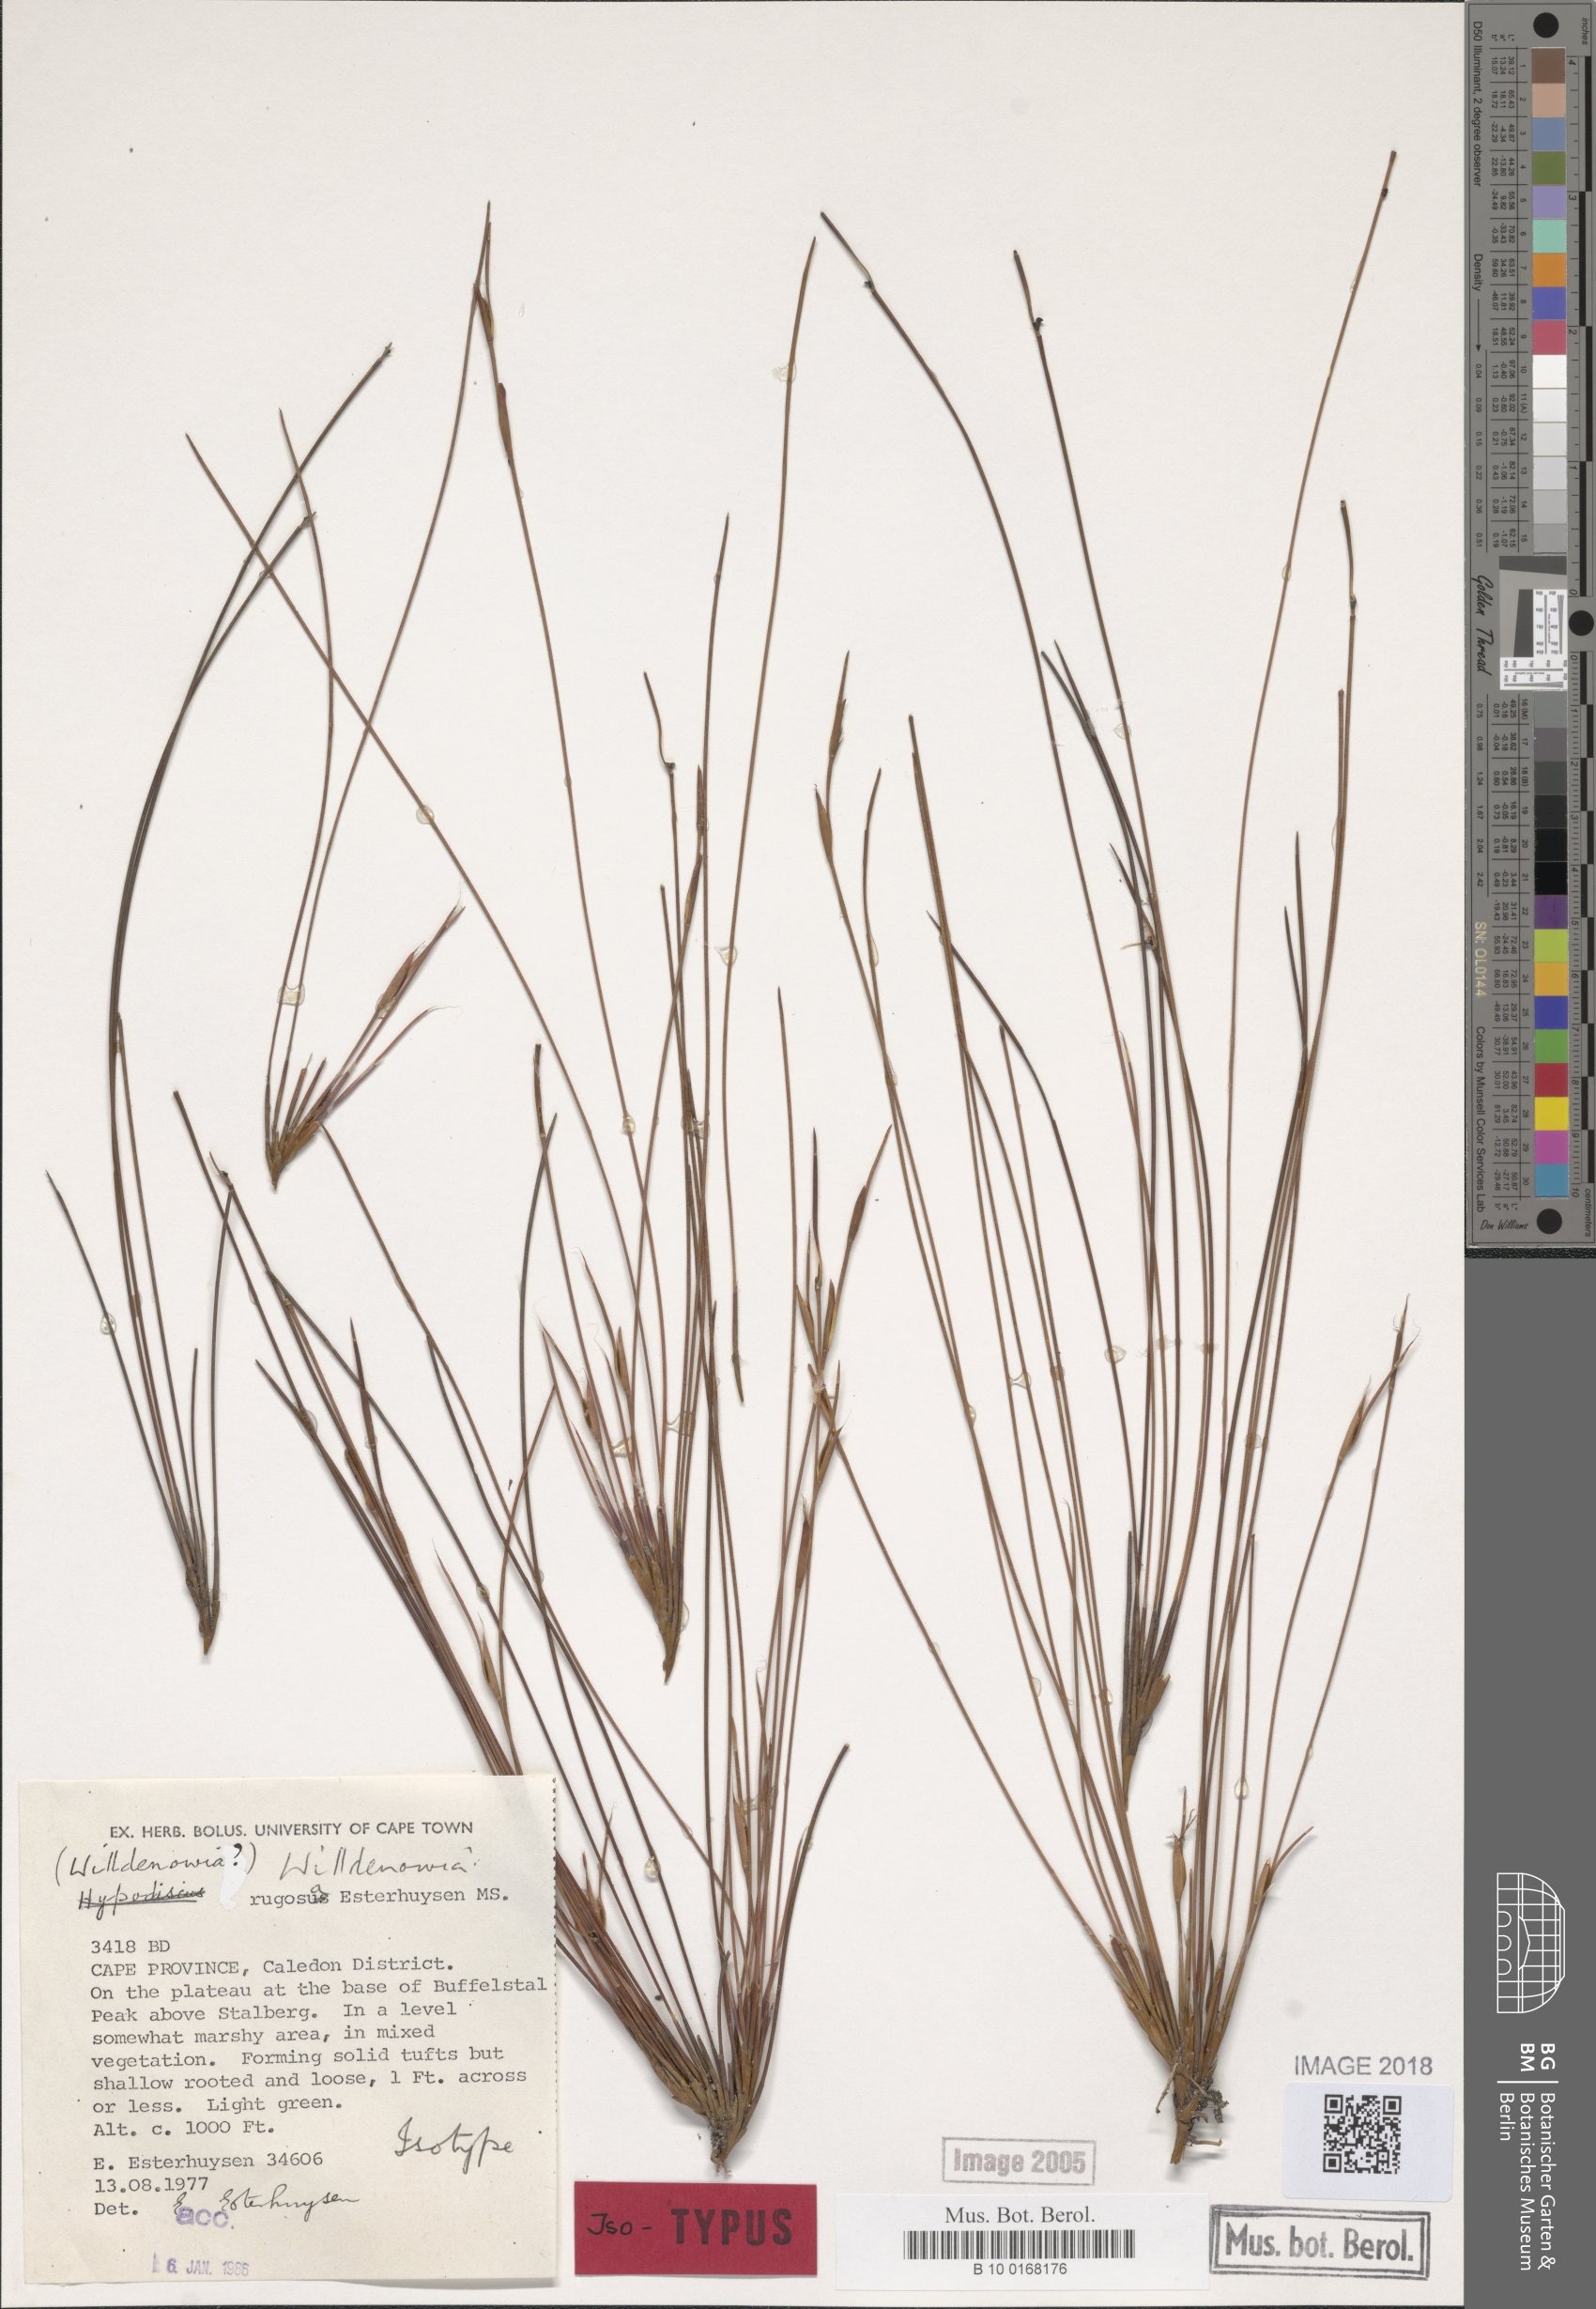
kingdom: Plantae
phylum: Tracheophyta
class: Liliopsida
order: Poales
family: Restionaceae
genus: Willdenowia
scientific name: Willdenowia rugosa
